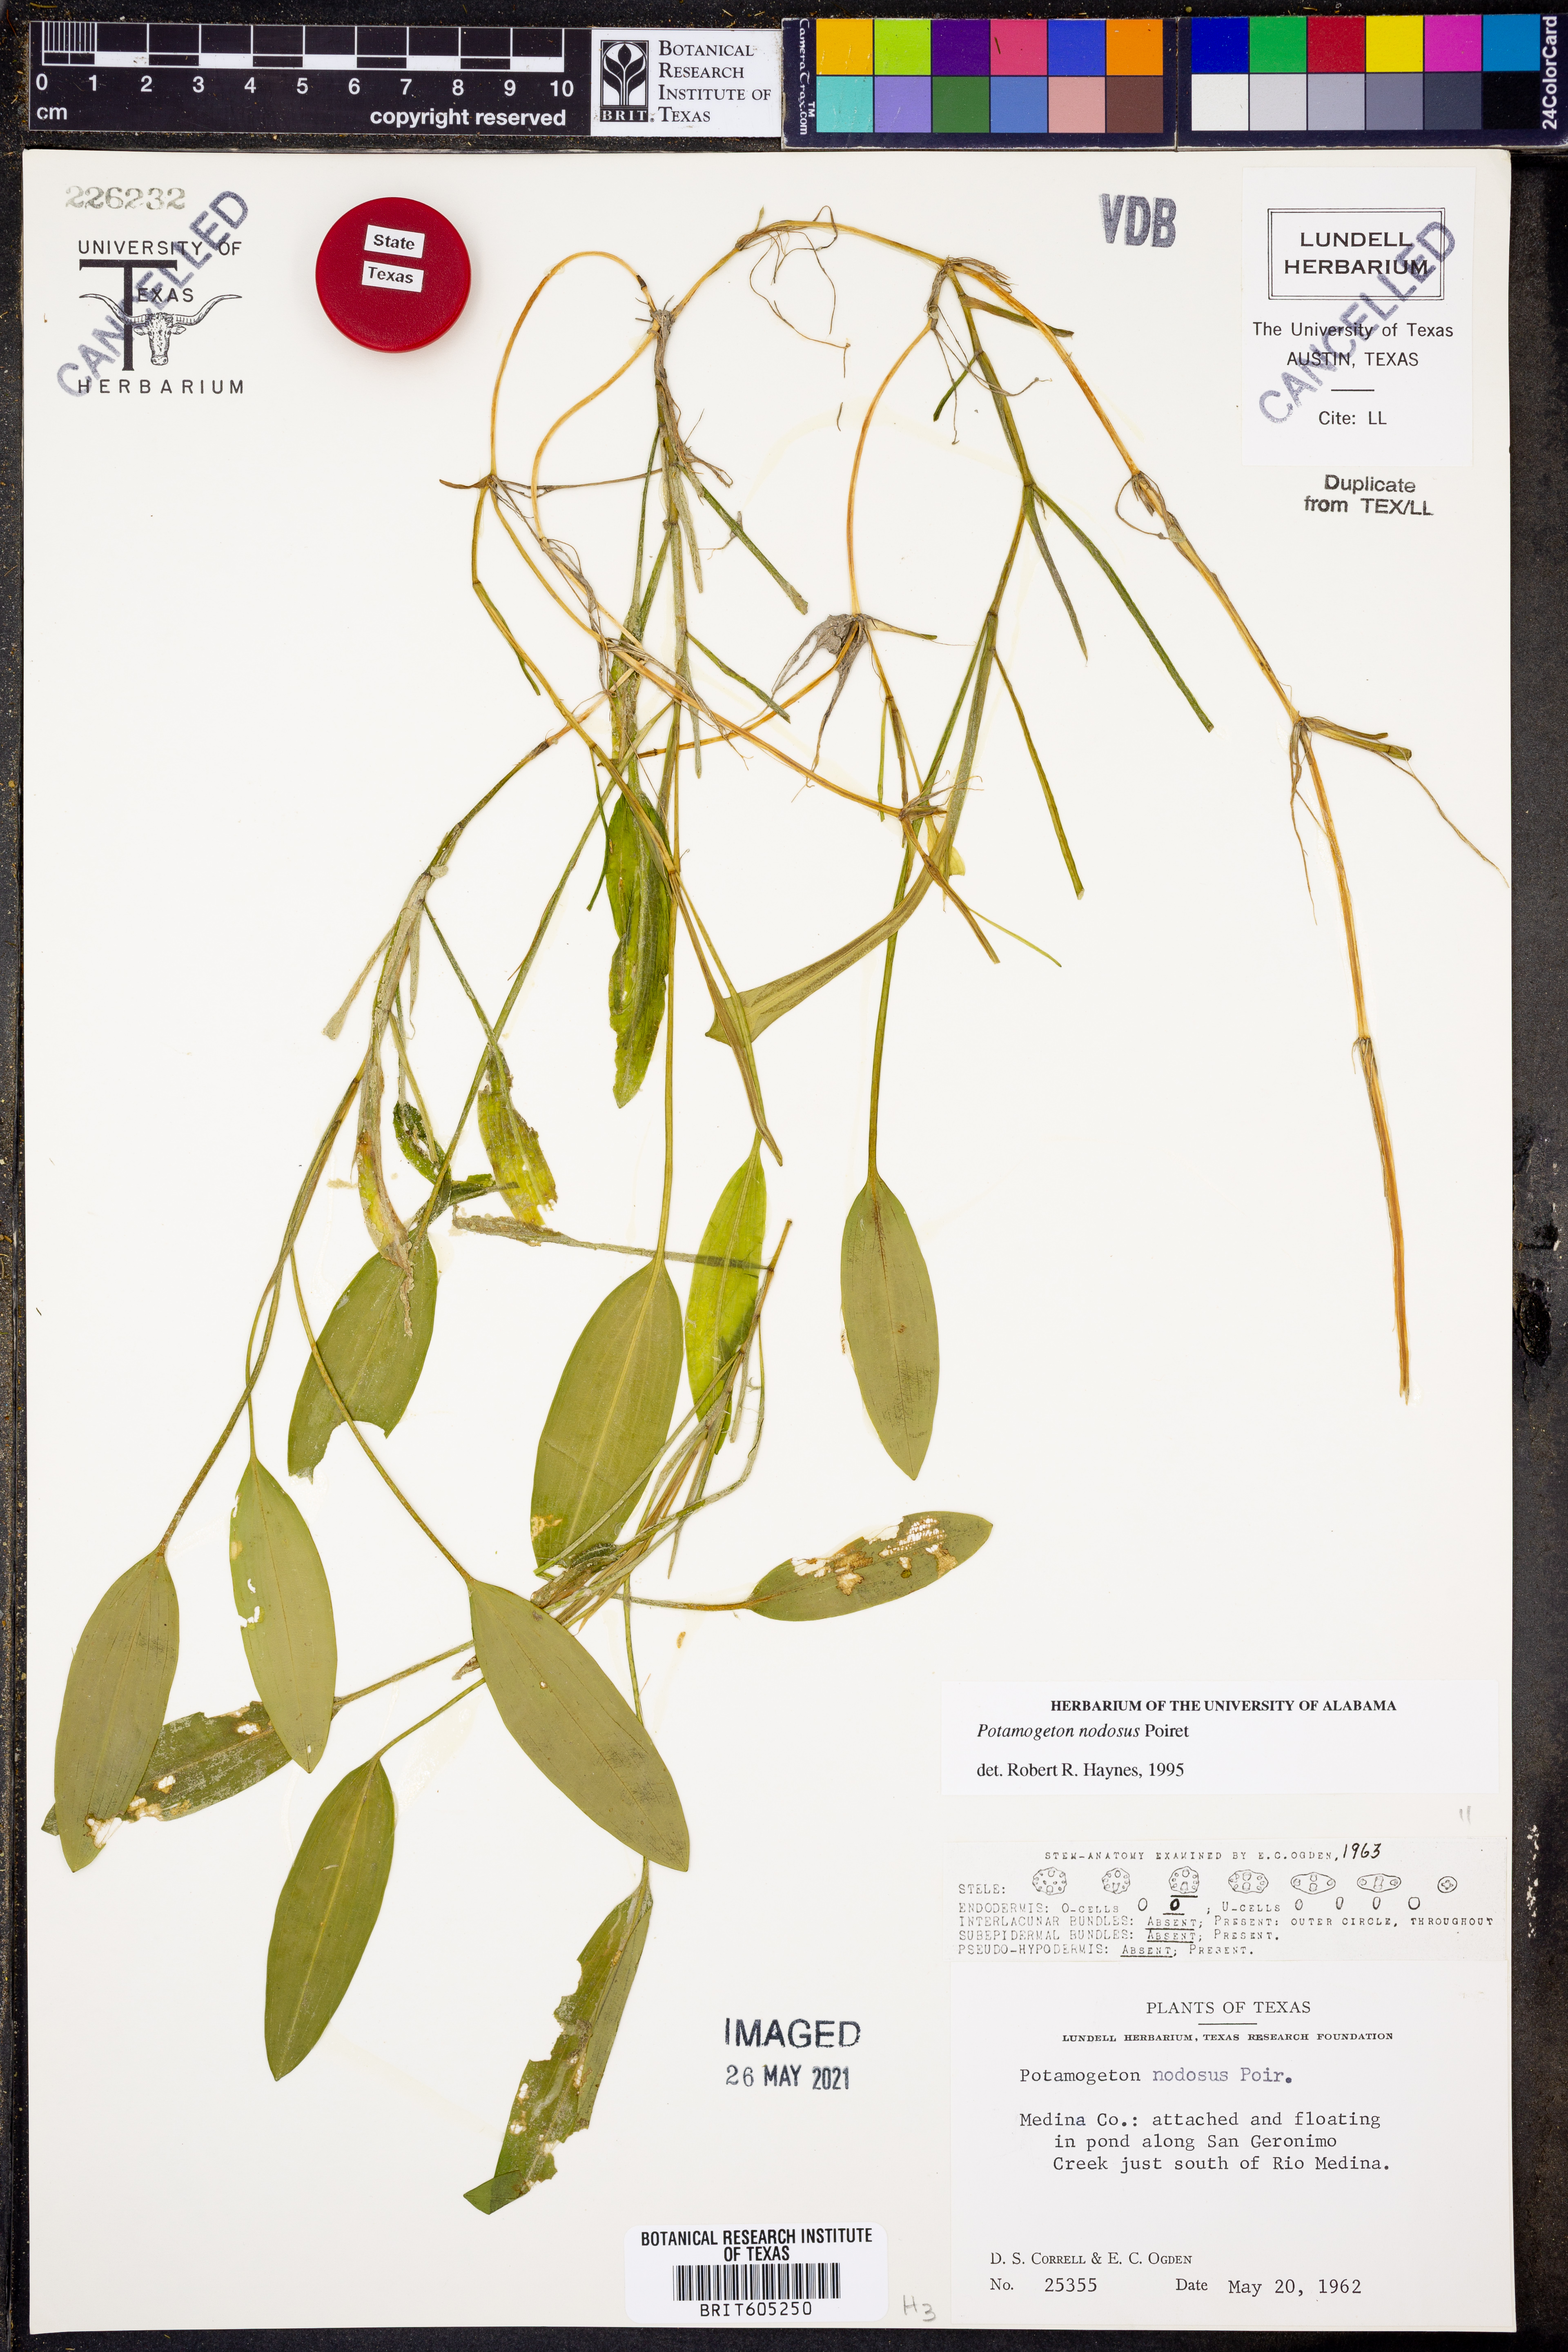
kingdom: Plantae
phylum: Tracheophyta
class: Liliopsida
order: Alismatales
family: Potamogetonaceae
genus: Potamogeton
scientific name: Potamogeton nodosus
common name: Loddon pondweed
